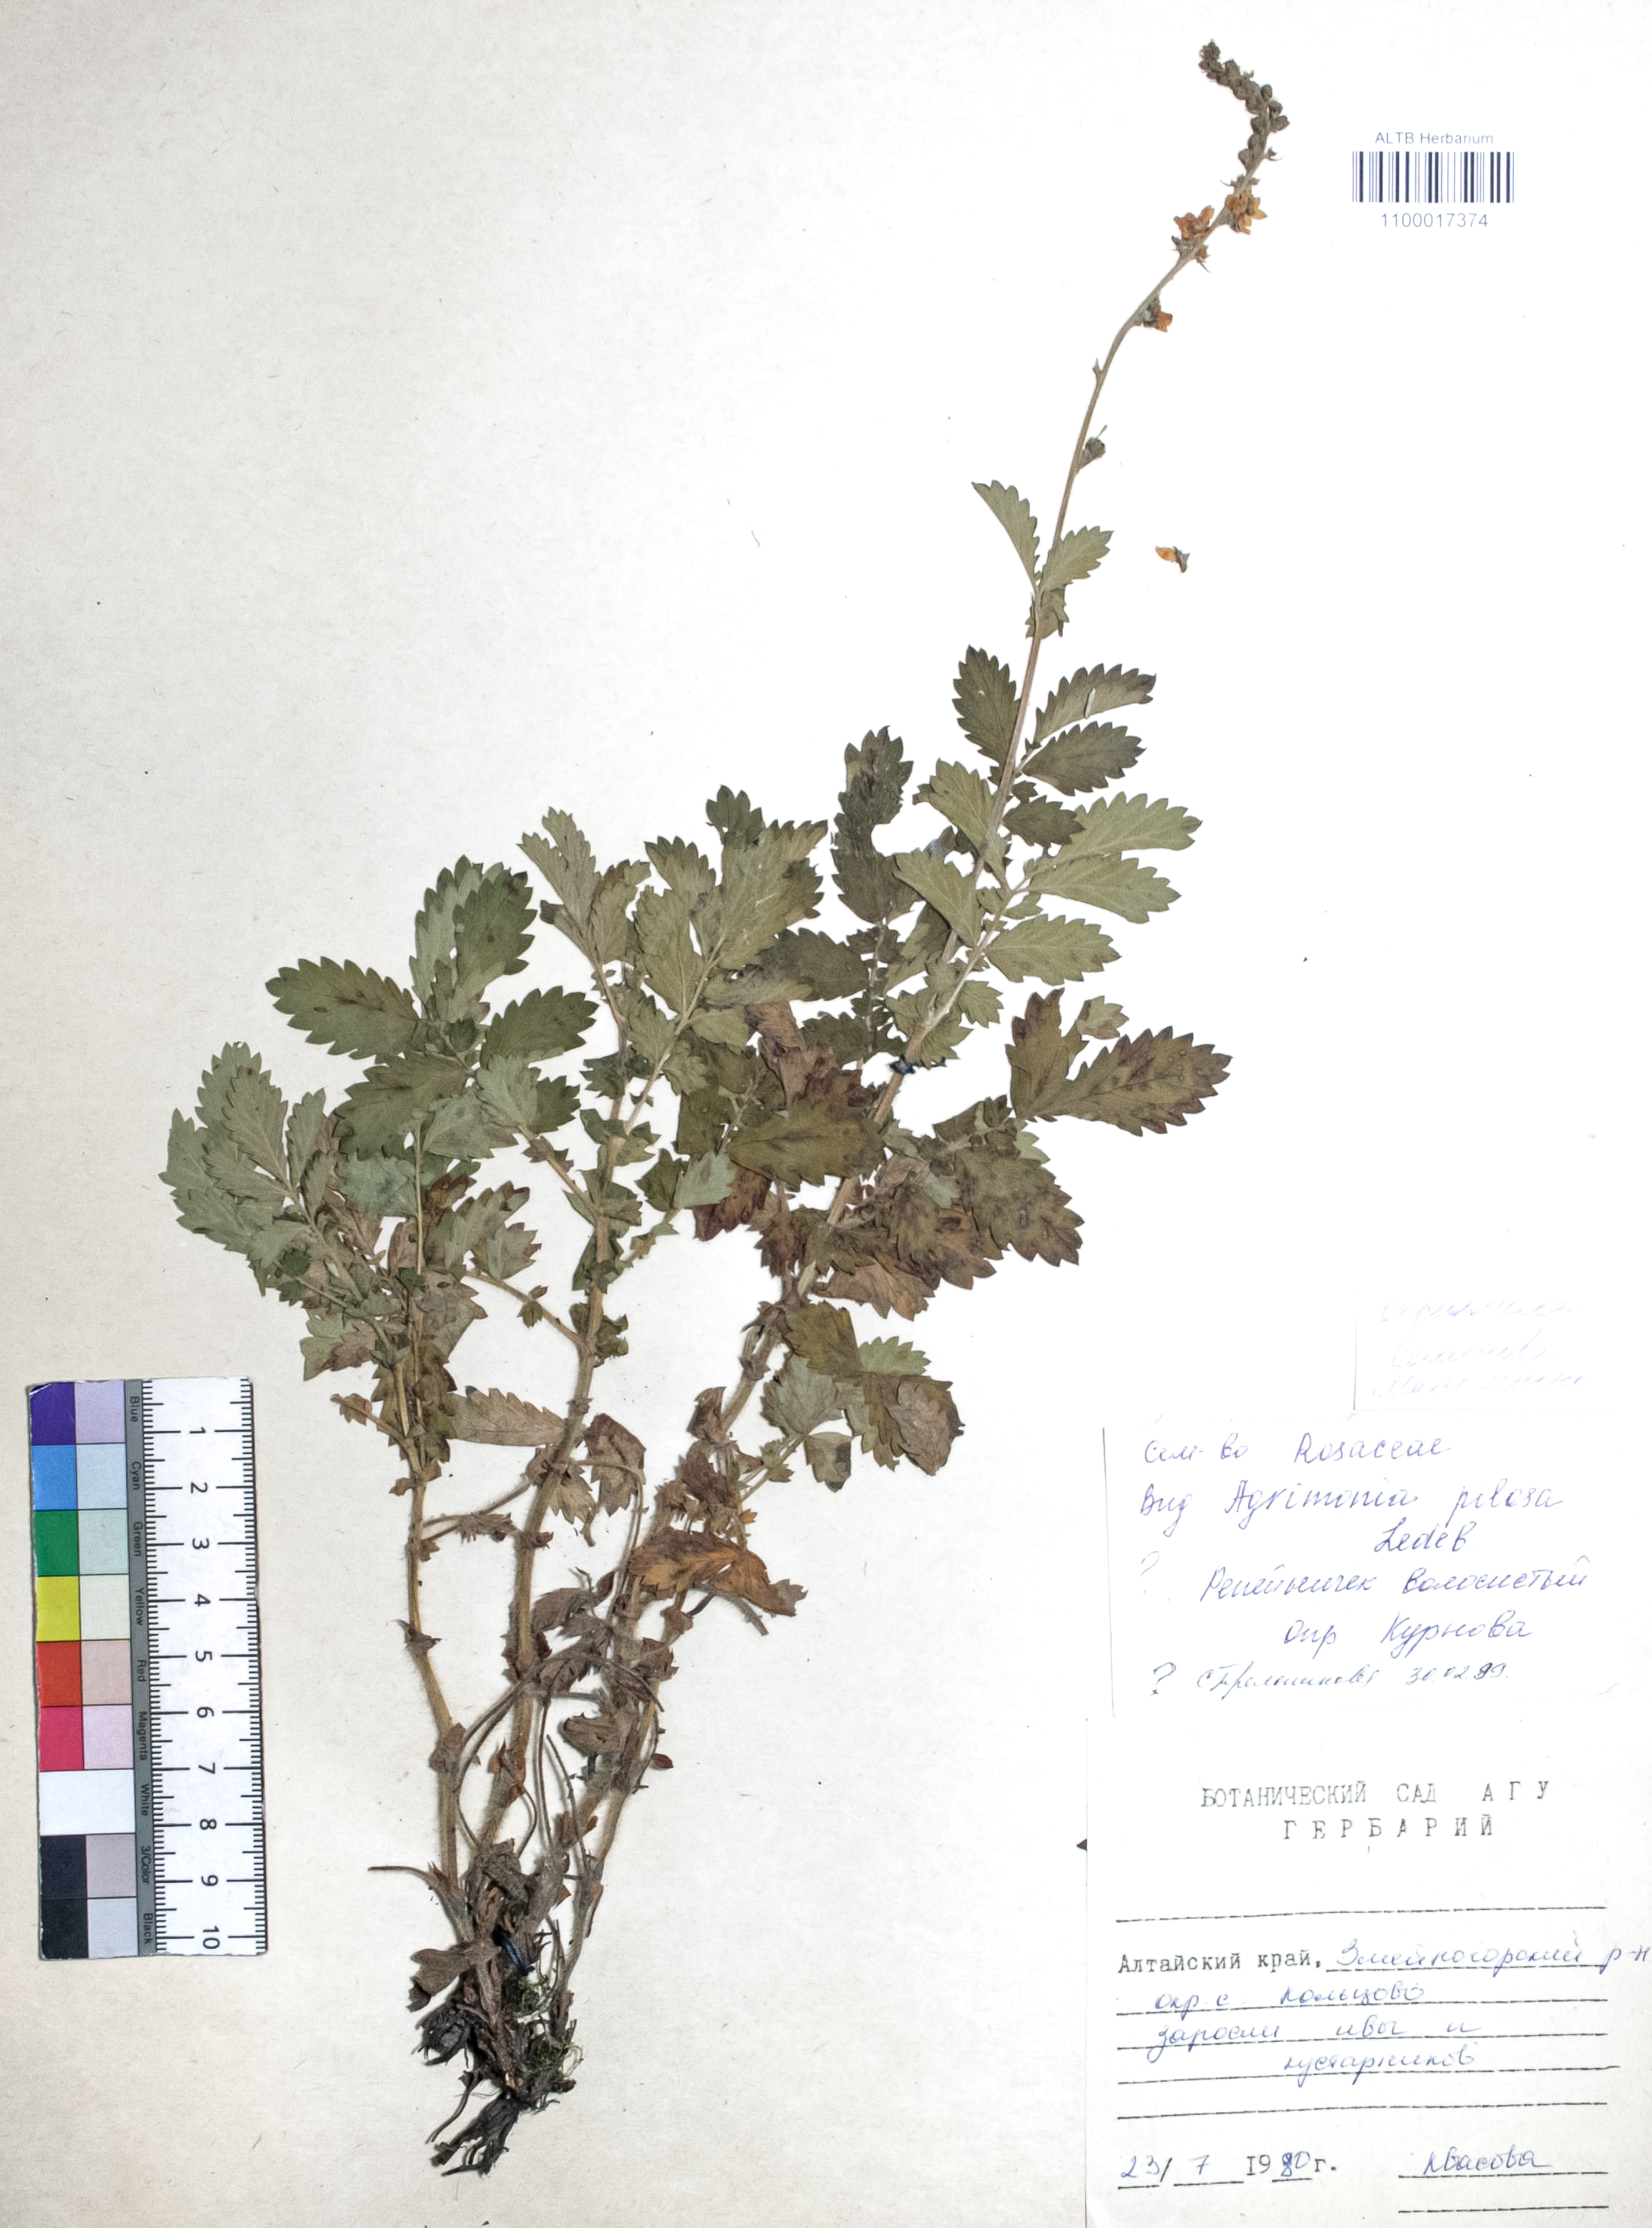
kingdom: Plantae
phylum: Tracheophyta
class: Magnoliopsida
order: Rosales
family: Rosaceae
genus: Agrimonia
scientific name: Agrimonia pilosa
